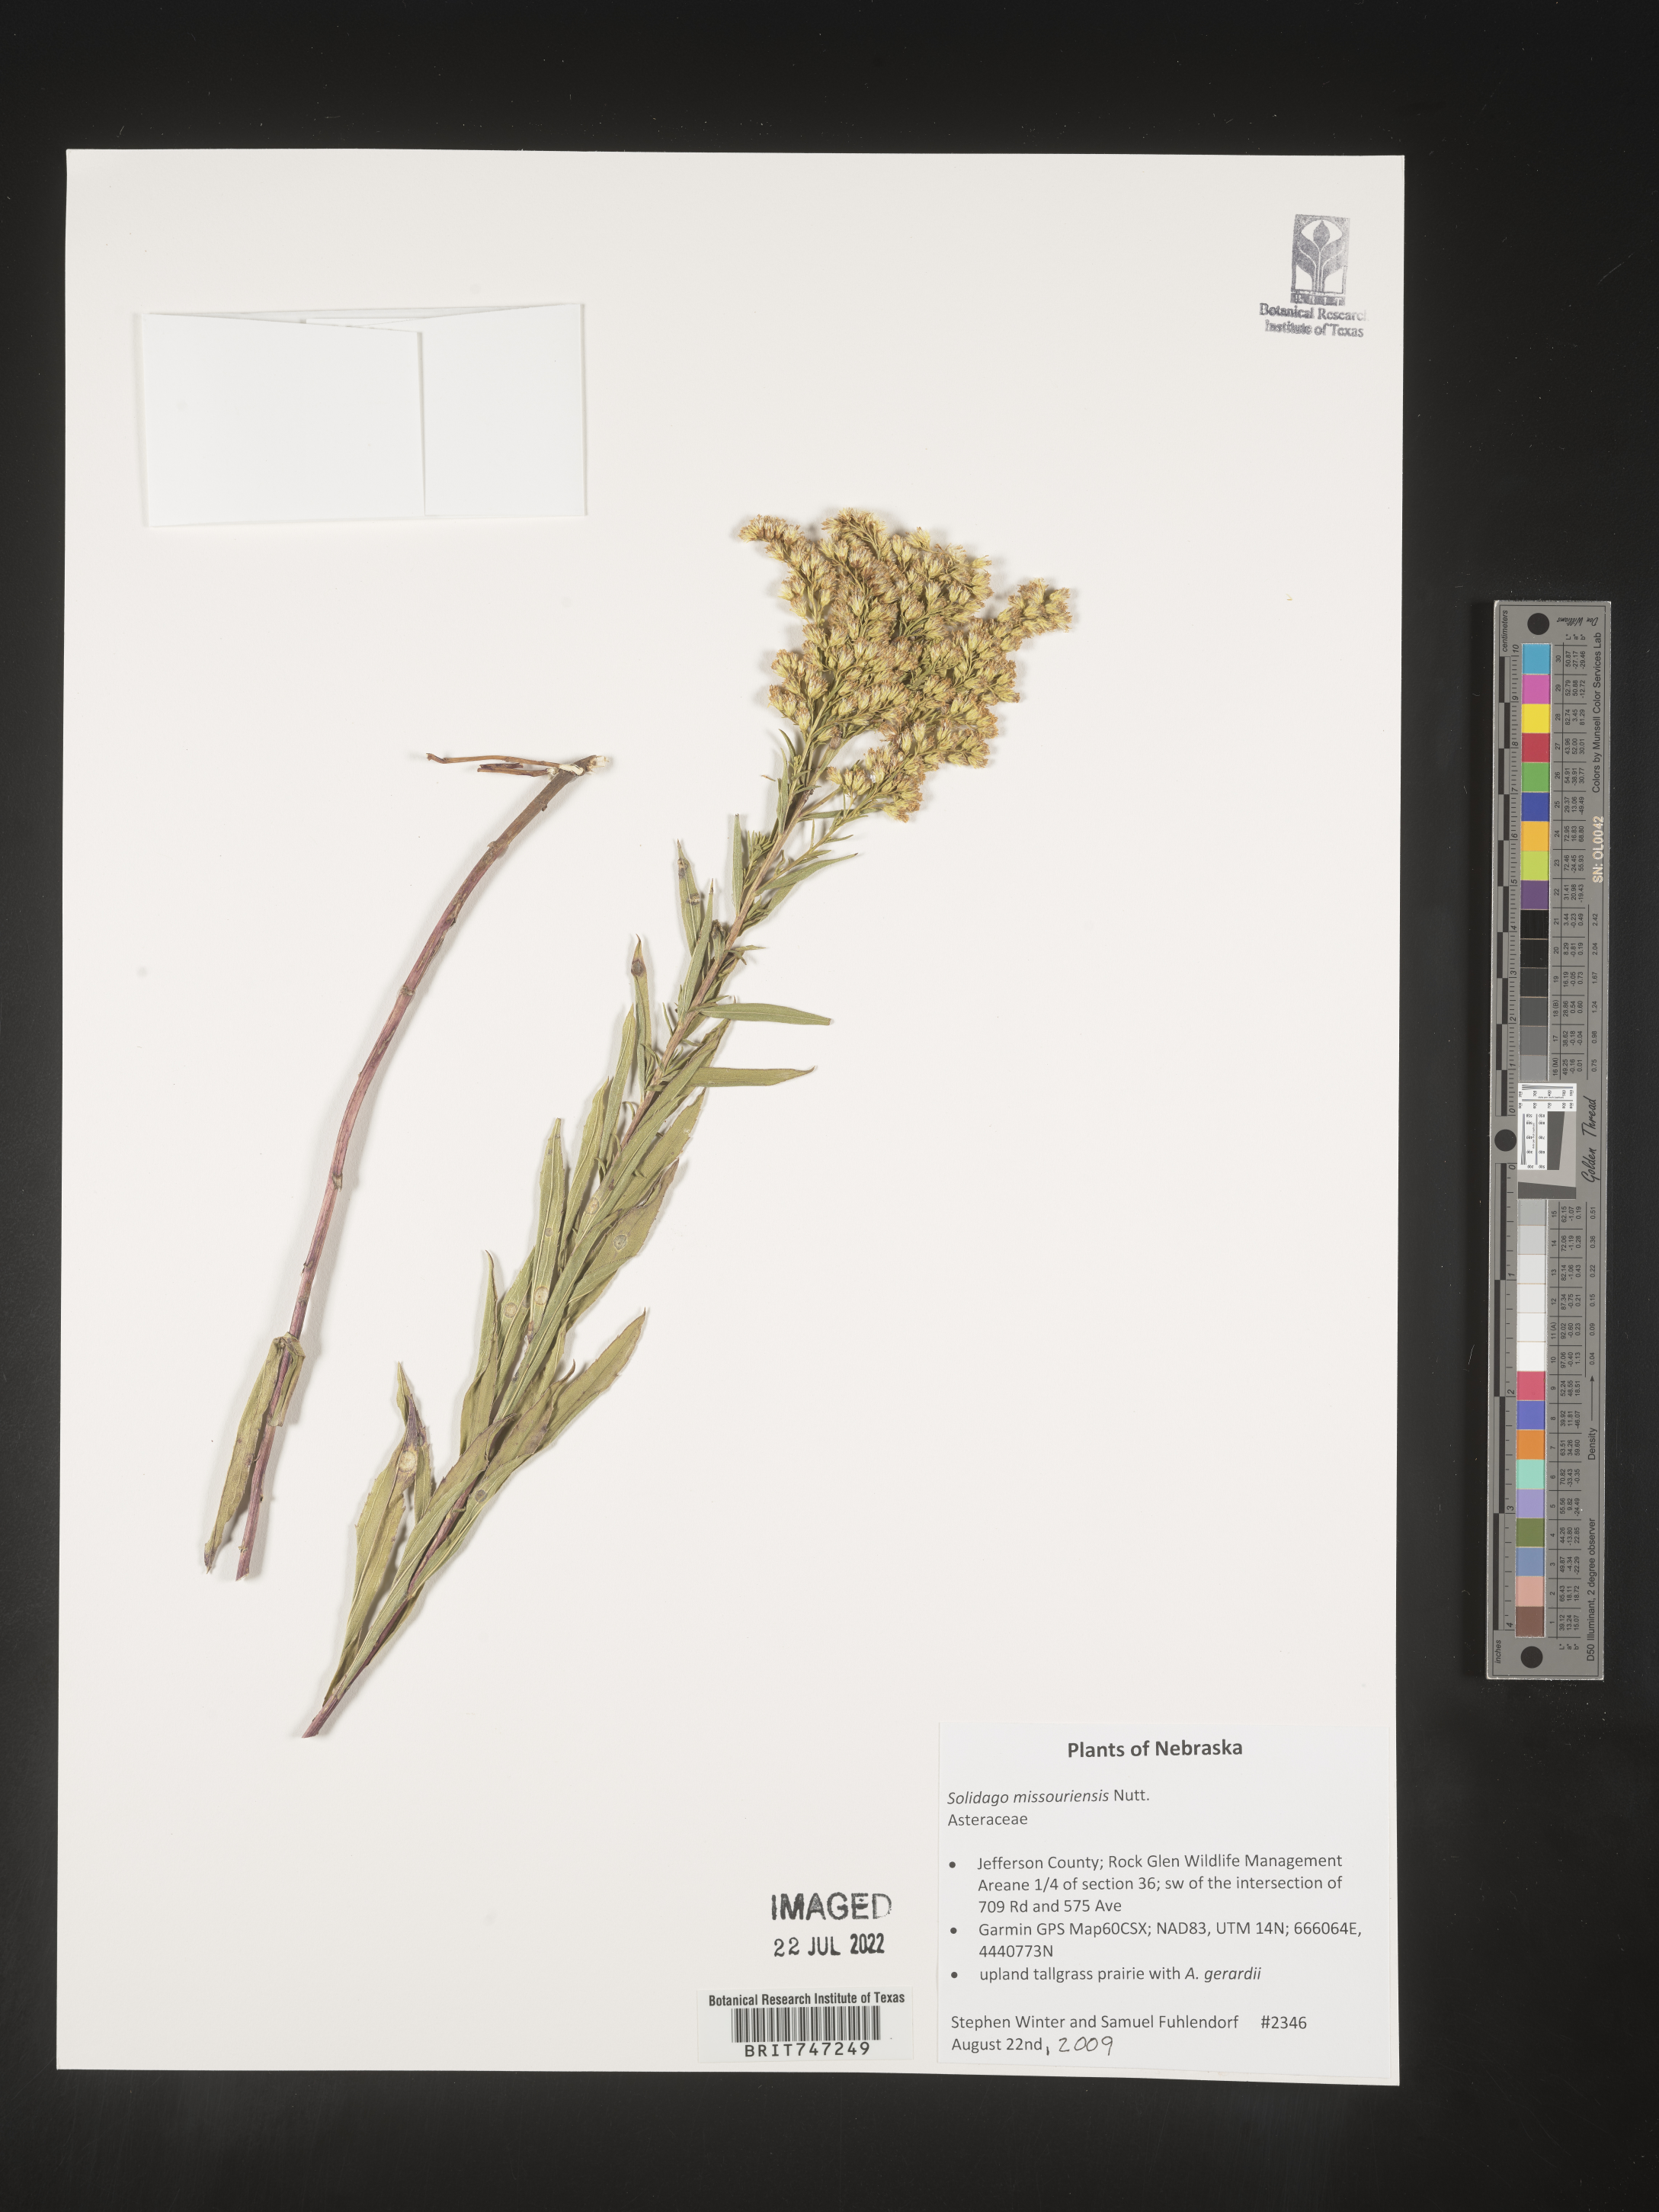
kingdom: Plantae
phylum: Tracheophyta
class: Magnoliopsida
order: Asterales
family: Asteraceae
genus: Solidago
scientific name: Solidago missouriensis
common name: Prairie goldenrod
